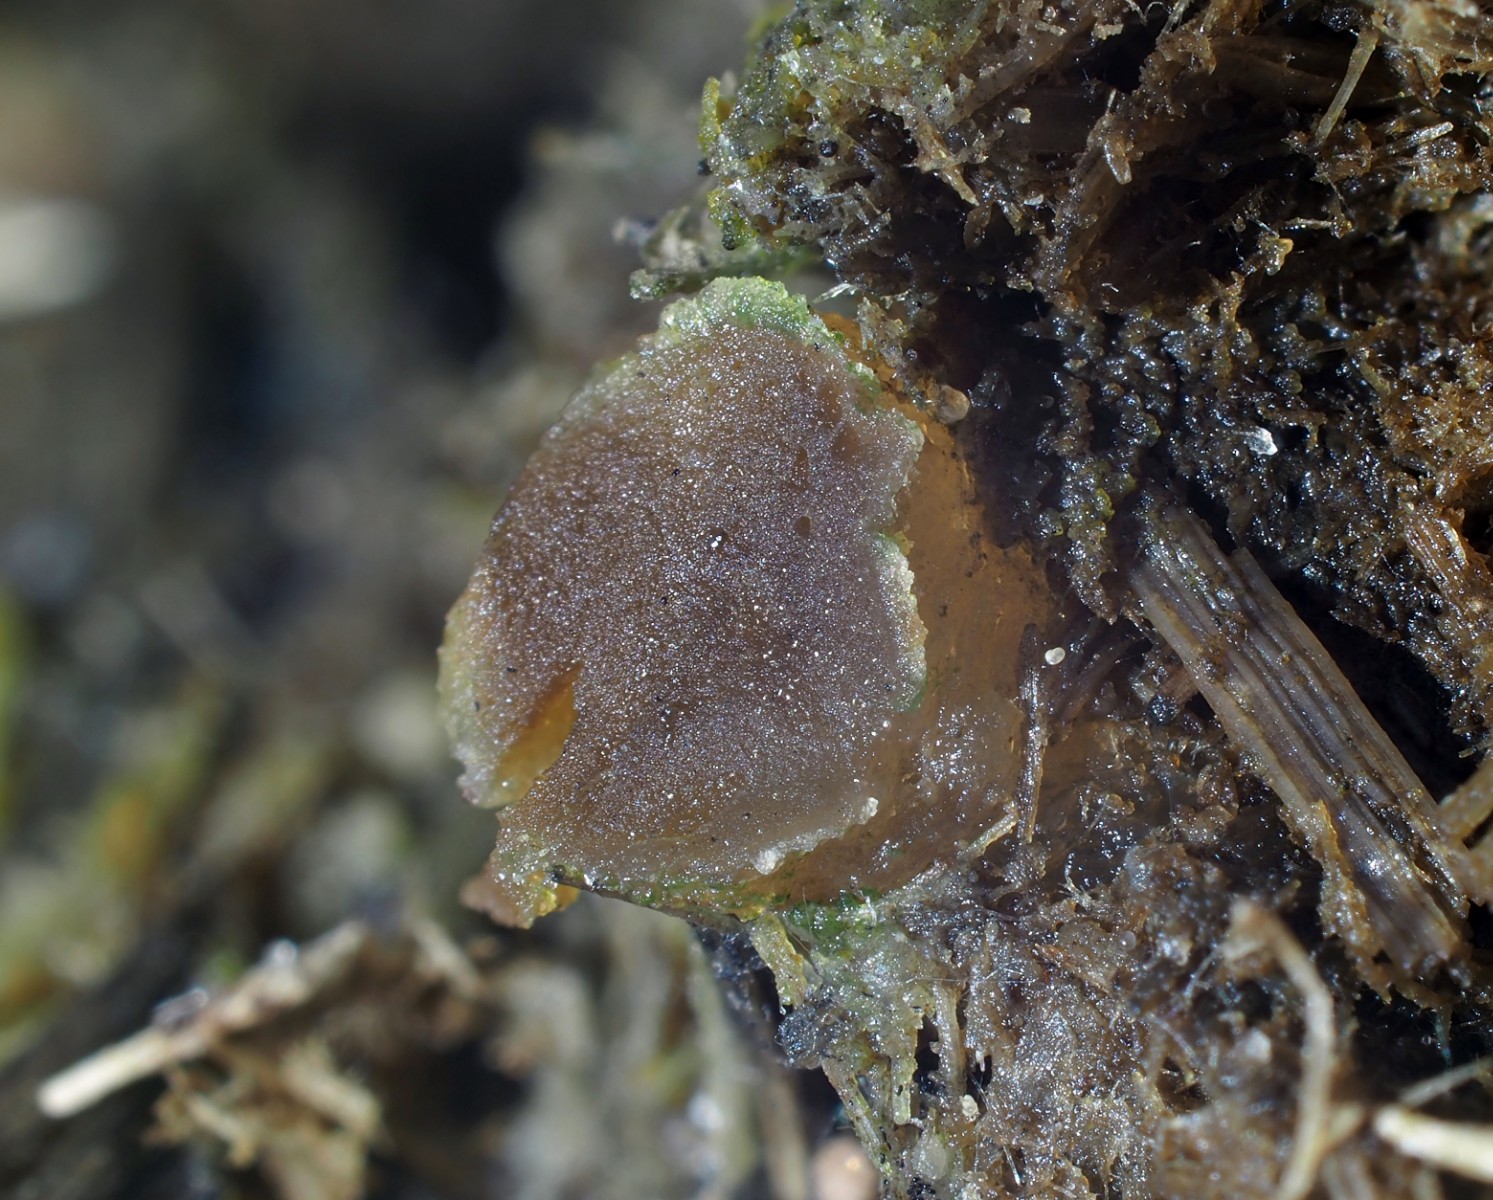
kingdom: Fungi
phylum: Ascomycota
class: Pezizomycetes
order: Pezizales
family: Pezizaceae
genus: Peziza
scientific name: Peziza fimeti
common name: møg-bægersvamp
